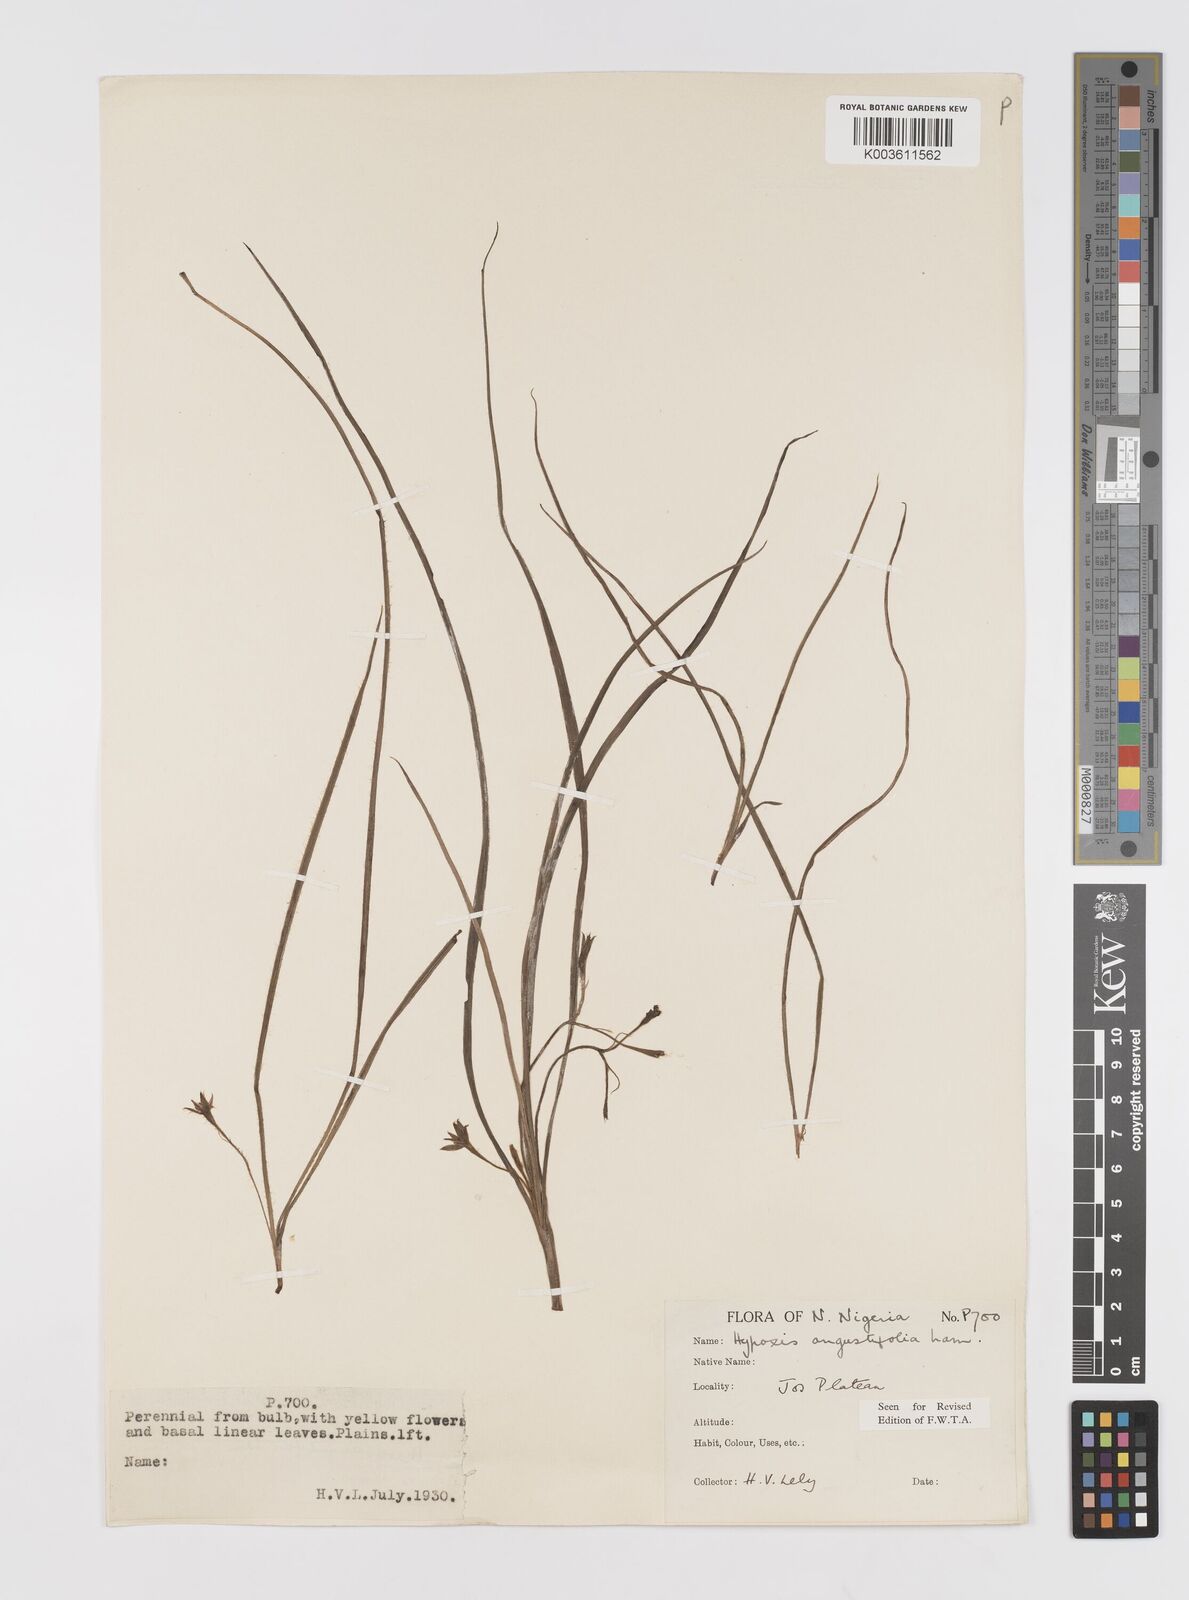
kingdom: Plantae
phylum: Tracheophyta
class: Liliopsida
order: Asparagales
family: Hypoxidaceae
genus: Hypoxis
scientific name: Hypoxis angustifolia
